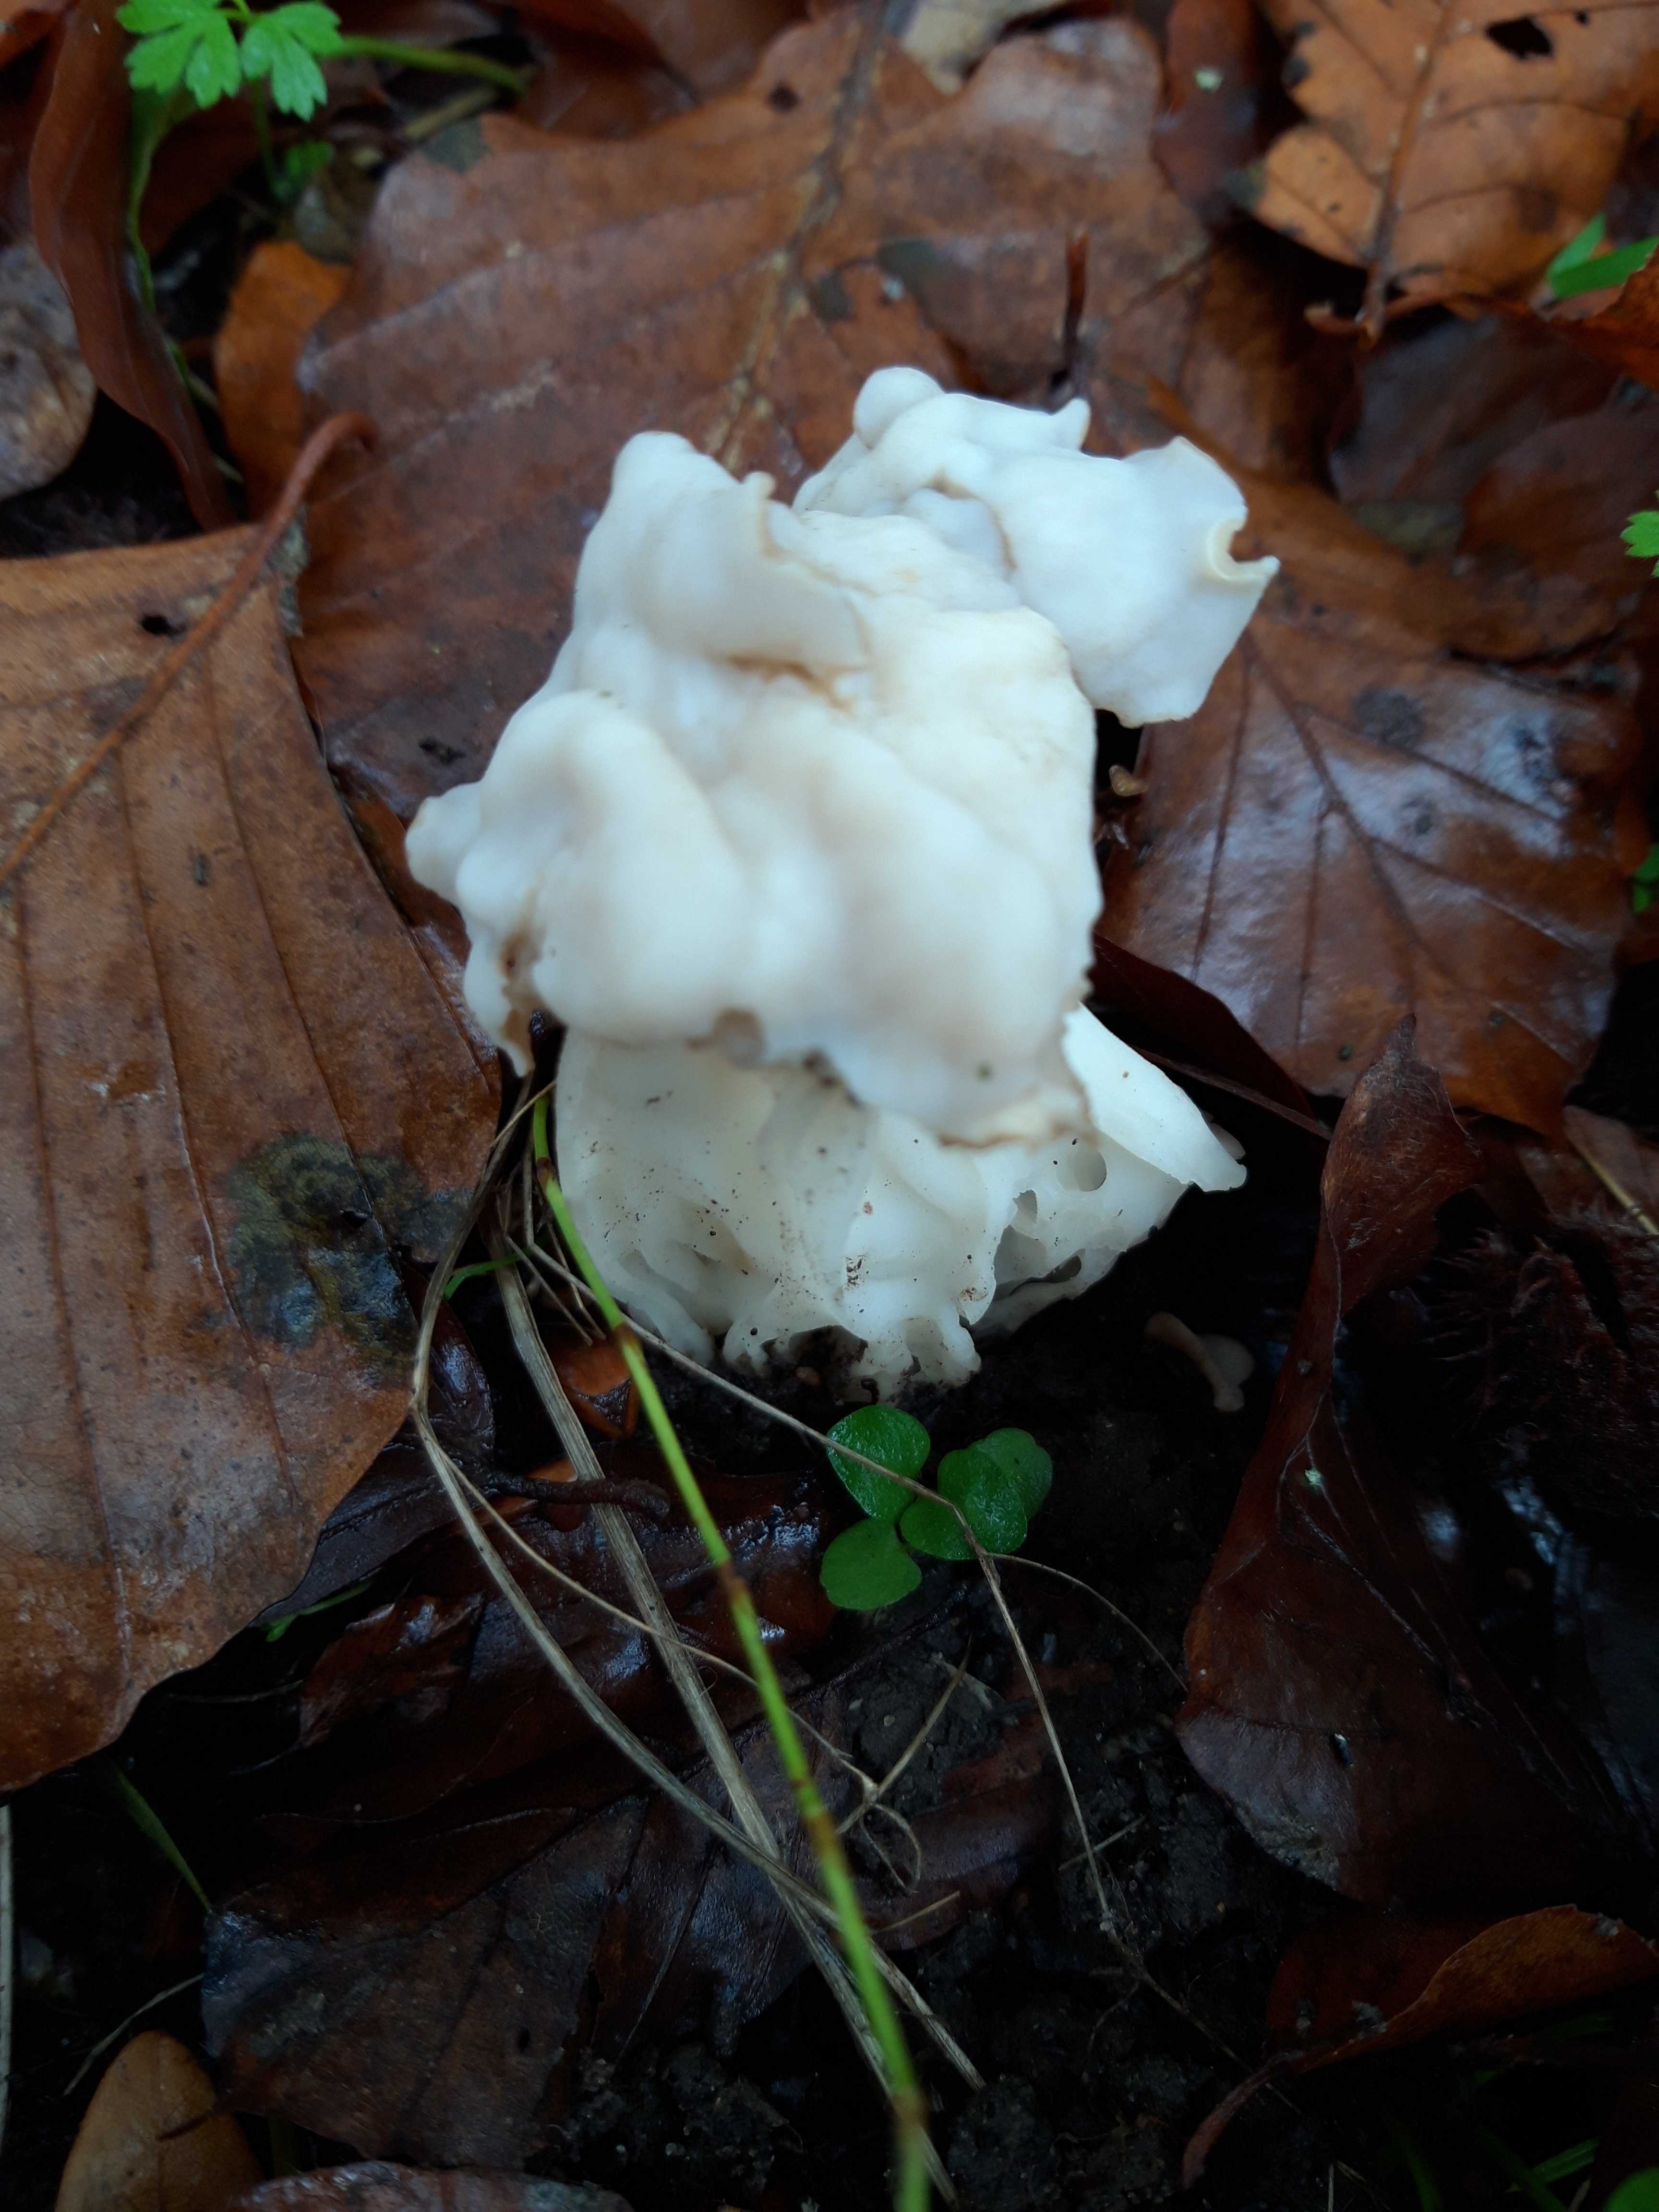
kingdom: Fungi
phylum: Ascomycota
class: Pezizomycetes
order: Pezizales
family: Helvellaceae
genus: Helvella
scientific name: Helvella crispa
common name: kruset foldhat
